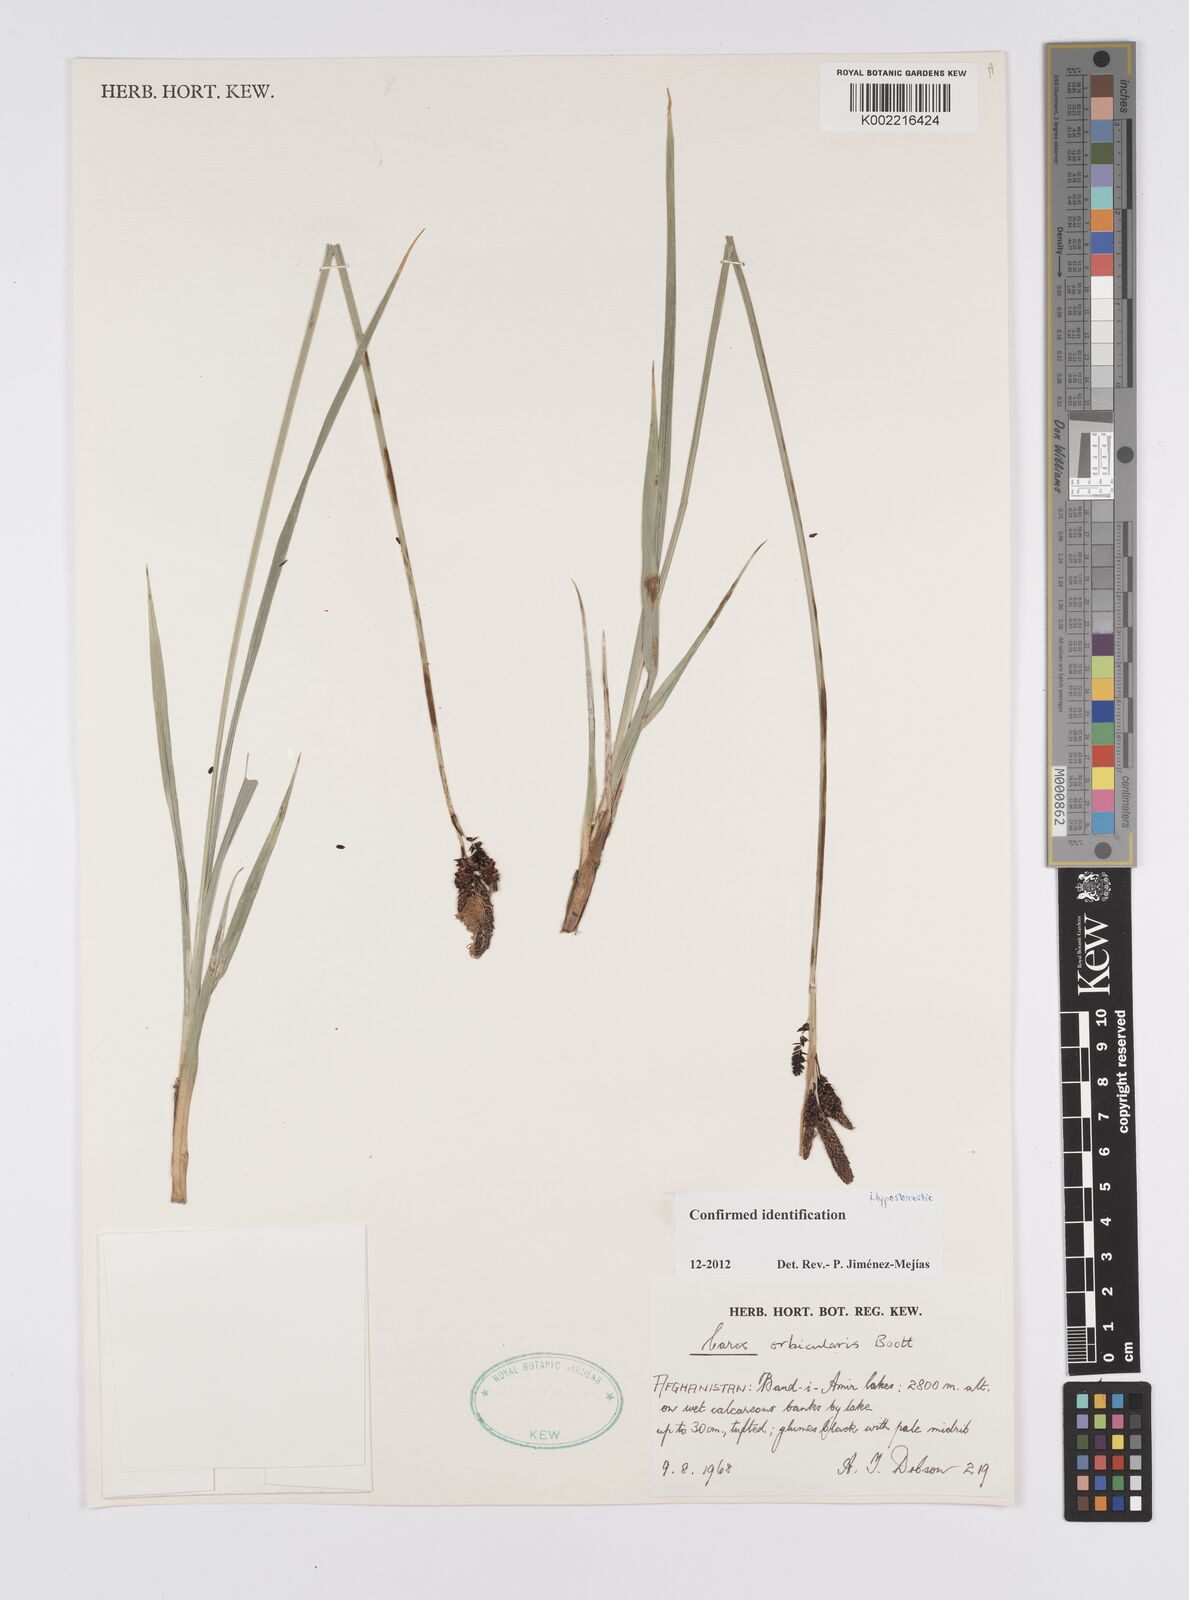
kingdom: Plantae
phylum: Tracheophyta
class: Liliopsida
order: Poales
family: Cyperaceae
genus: Carex
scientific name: Carex orbicularis
